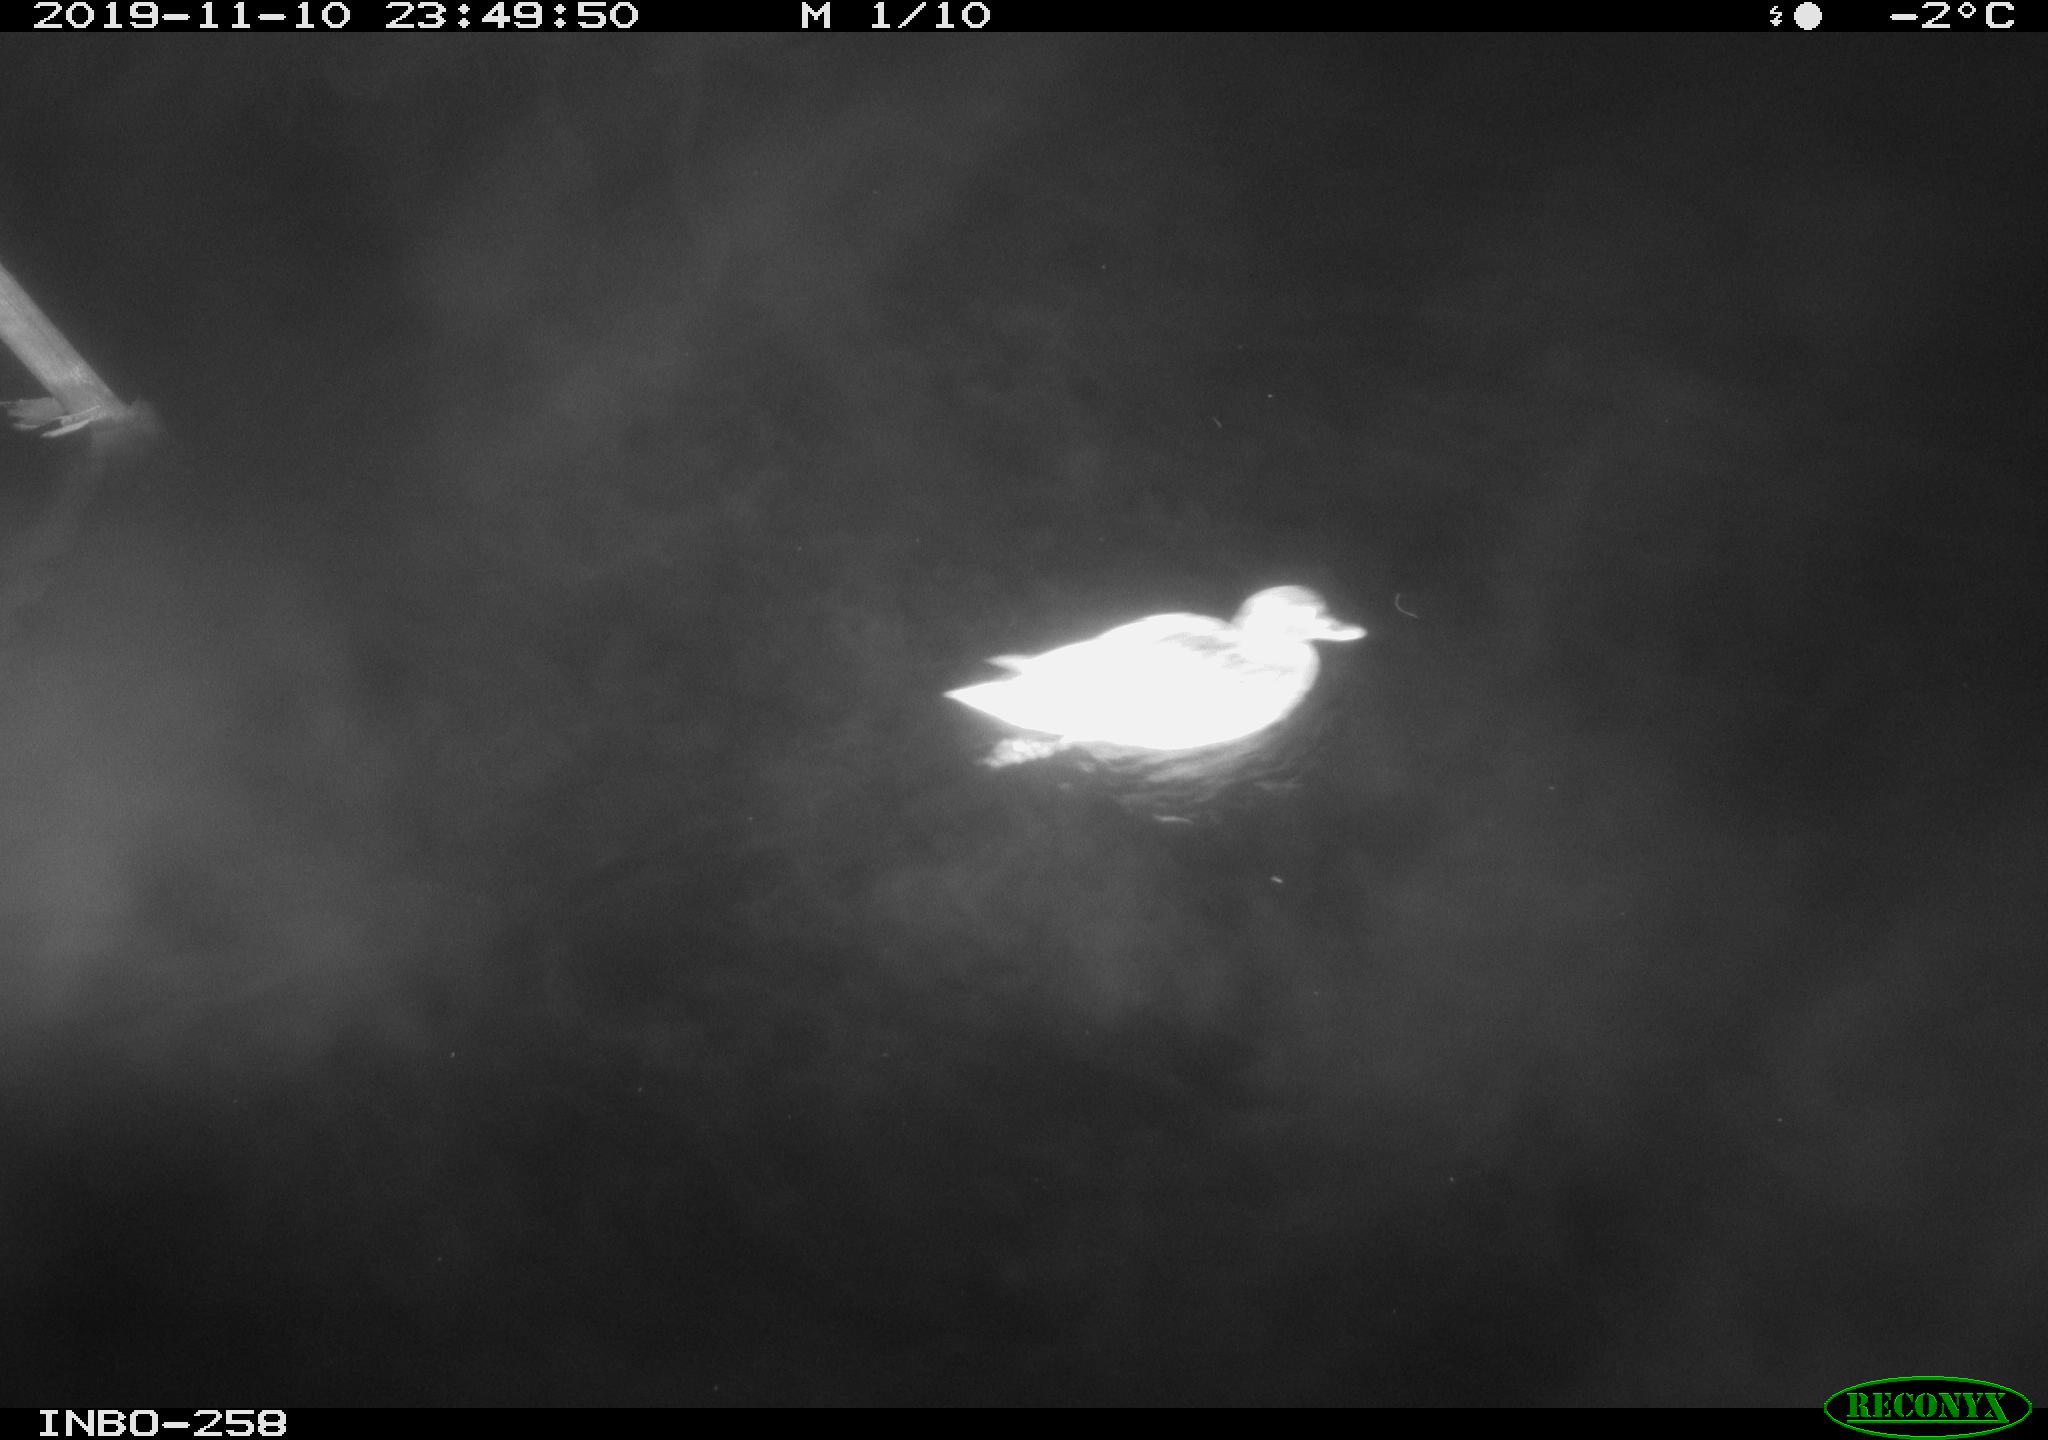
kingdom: Animalia
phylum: Chordata
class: Aves
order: Anseriformes
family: Anatidae
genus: Anas
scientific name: Anas platyrhynchos
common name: Mallard
